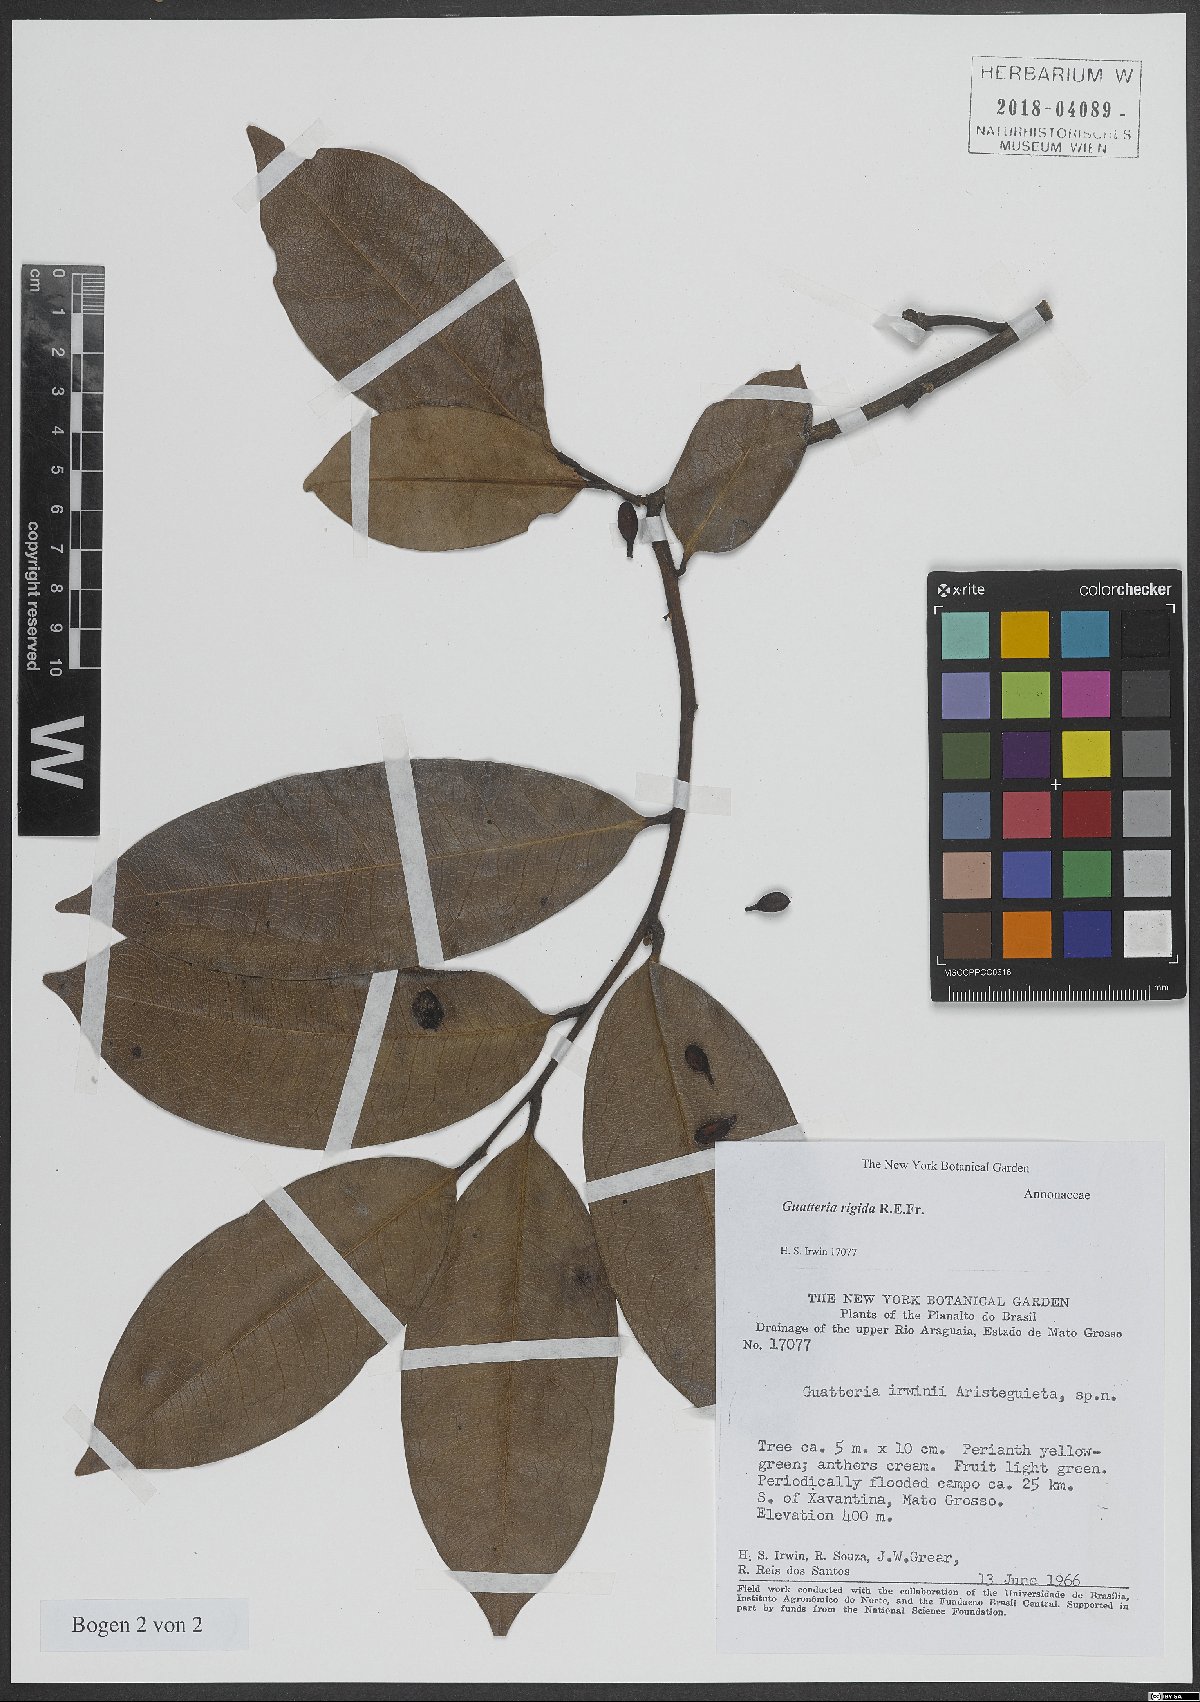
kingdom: Plantae
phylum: Tracheophyta
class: Magnoliopsida
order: Magnoliales
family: Annonaceae
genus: Guatteria
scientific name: Guatteria rigida
